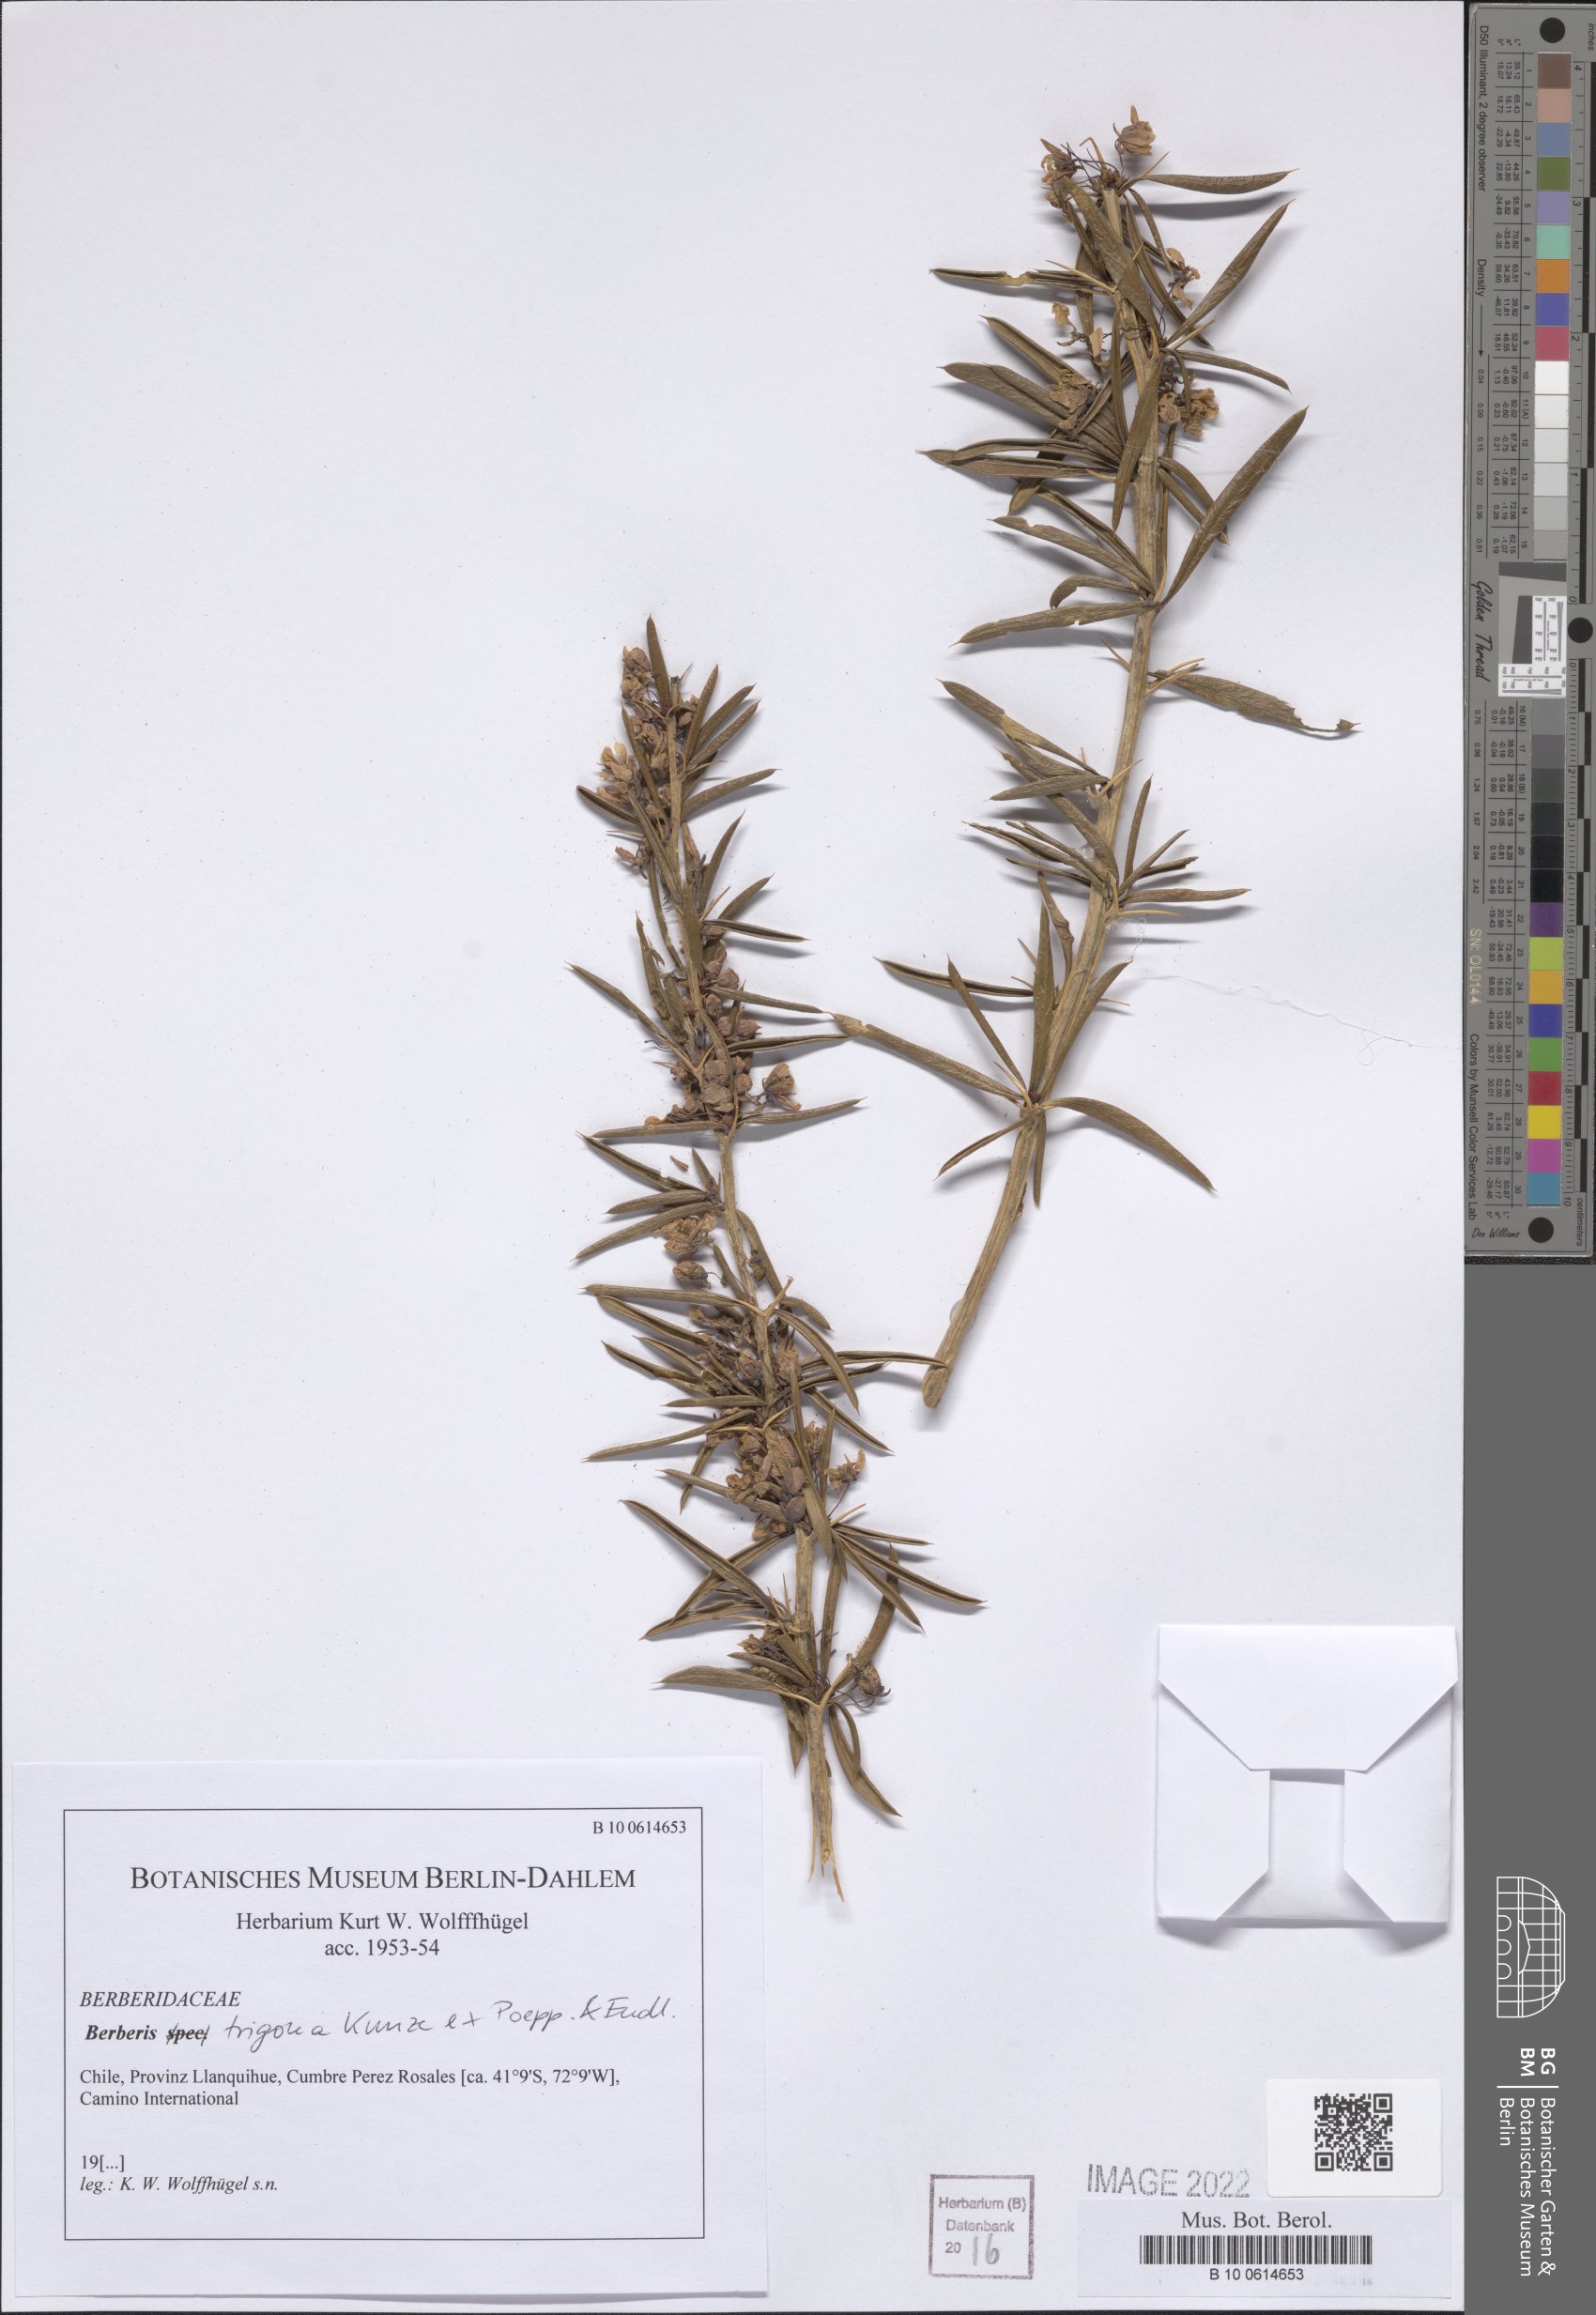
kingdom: Plantae
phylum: Tracheophyta
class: Magnoliopsida
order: Ranunculales
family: Berberidaceae
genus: Berberis
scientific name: Berberis trigona
